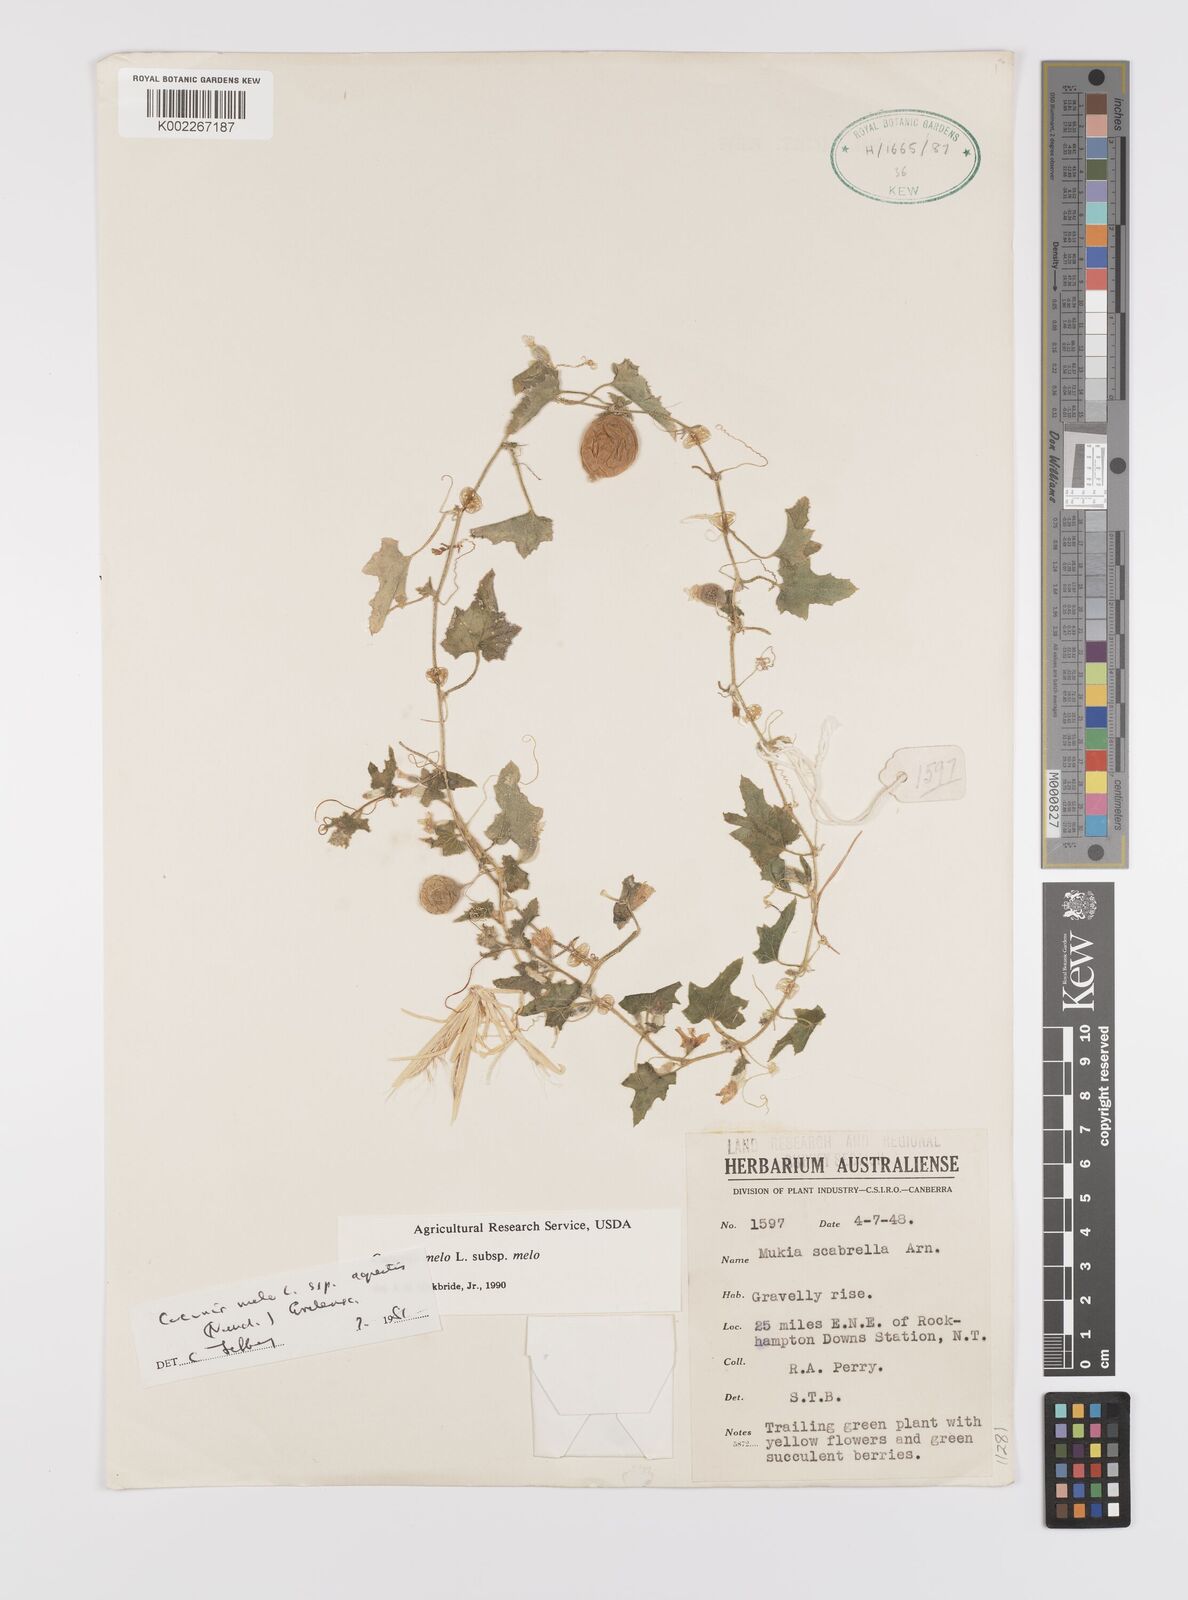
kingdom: Plantae
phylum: Tracheophyta
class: Magnoliopsida
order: Cucurbitales
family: Cucurbitaceae
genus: Cucumis
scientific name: Cucumis melo
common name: Melon
